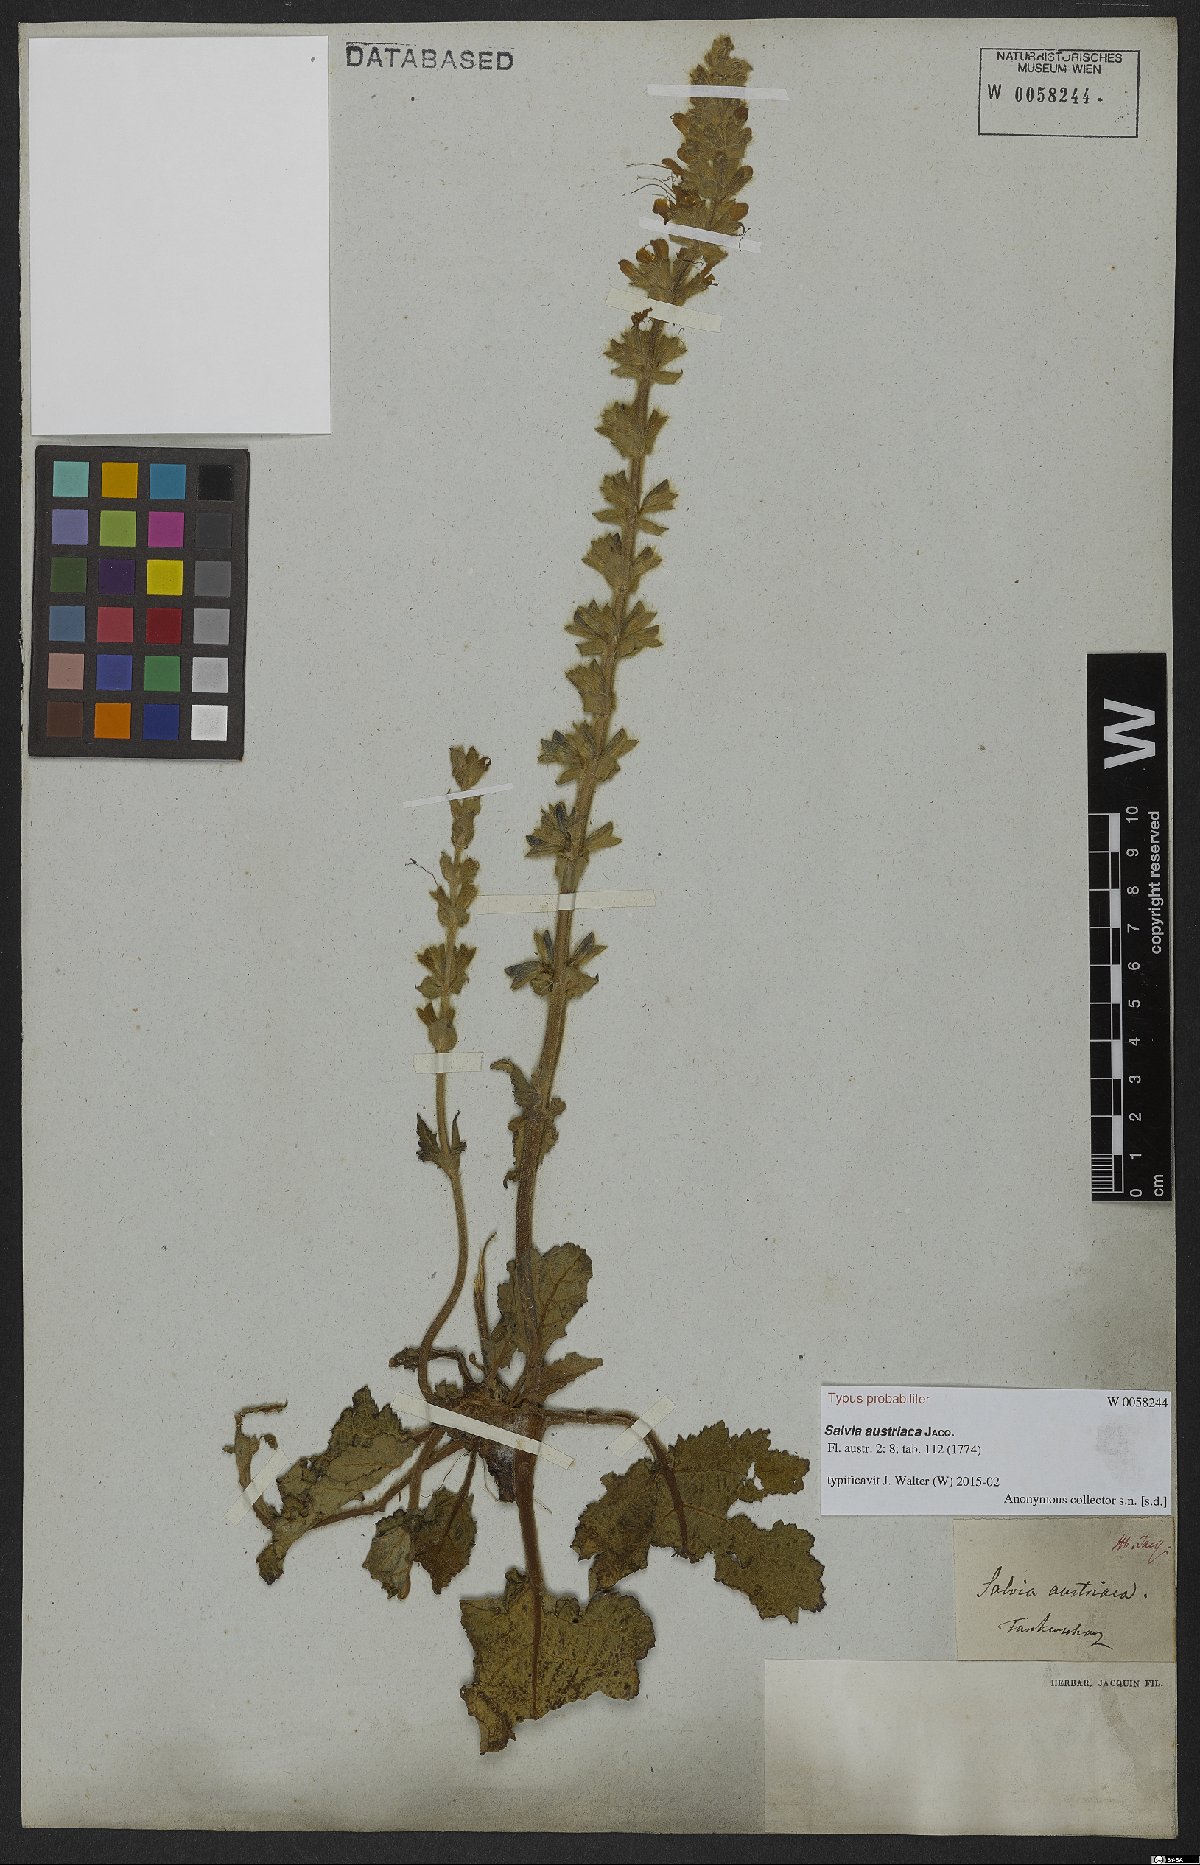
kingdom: Plantae
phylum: Tracheophyta
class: Magnoliopsida
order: Lamiales
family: Lamiaceae
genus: Salvia
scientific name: Salvia austriaca
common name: Austrian sage
